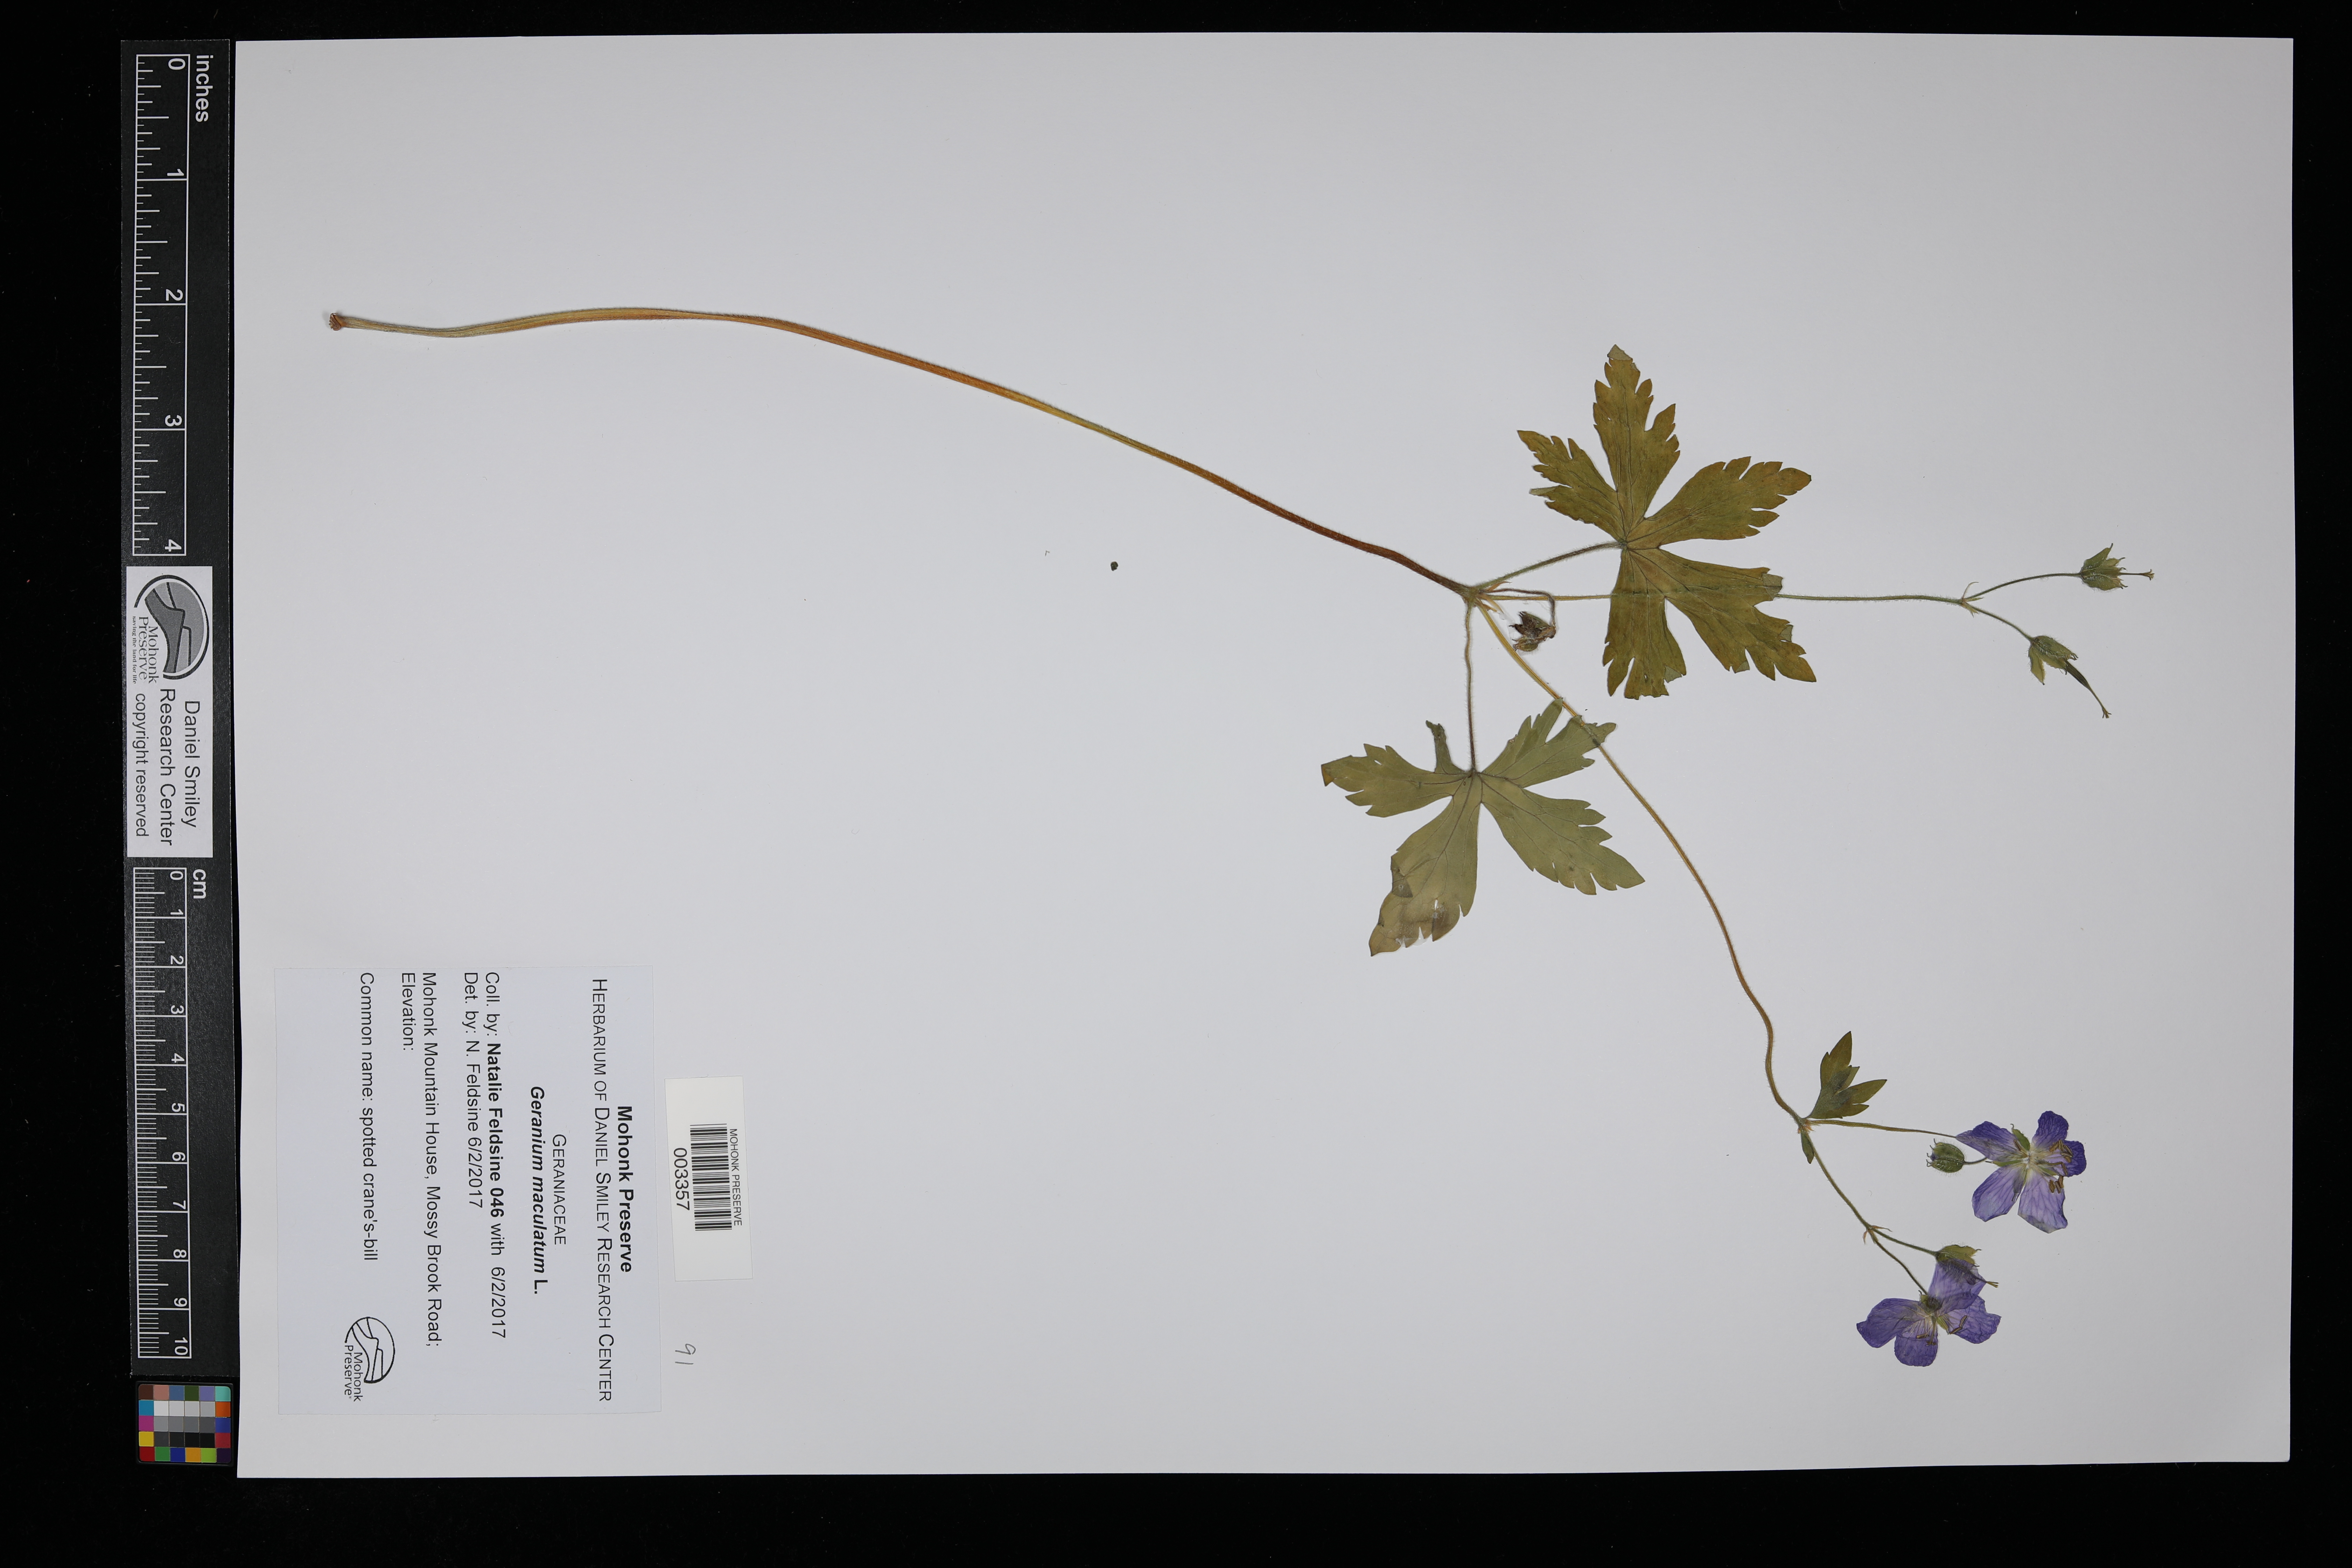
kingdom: Plantae
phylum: Tracheophyta
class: Magnoliopsida
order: Geraniales
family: Geraniaceae
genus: Geranium
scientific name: Geranium maculatum
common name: Spotted geranium
